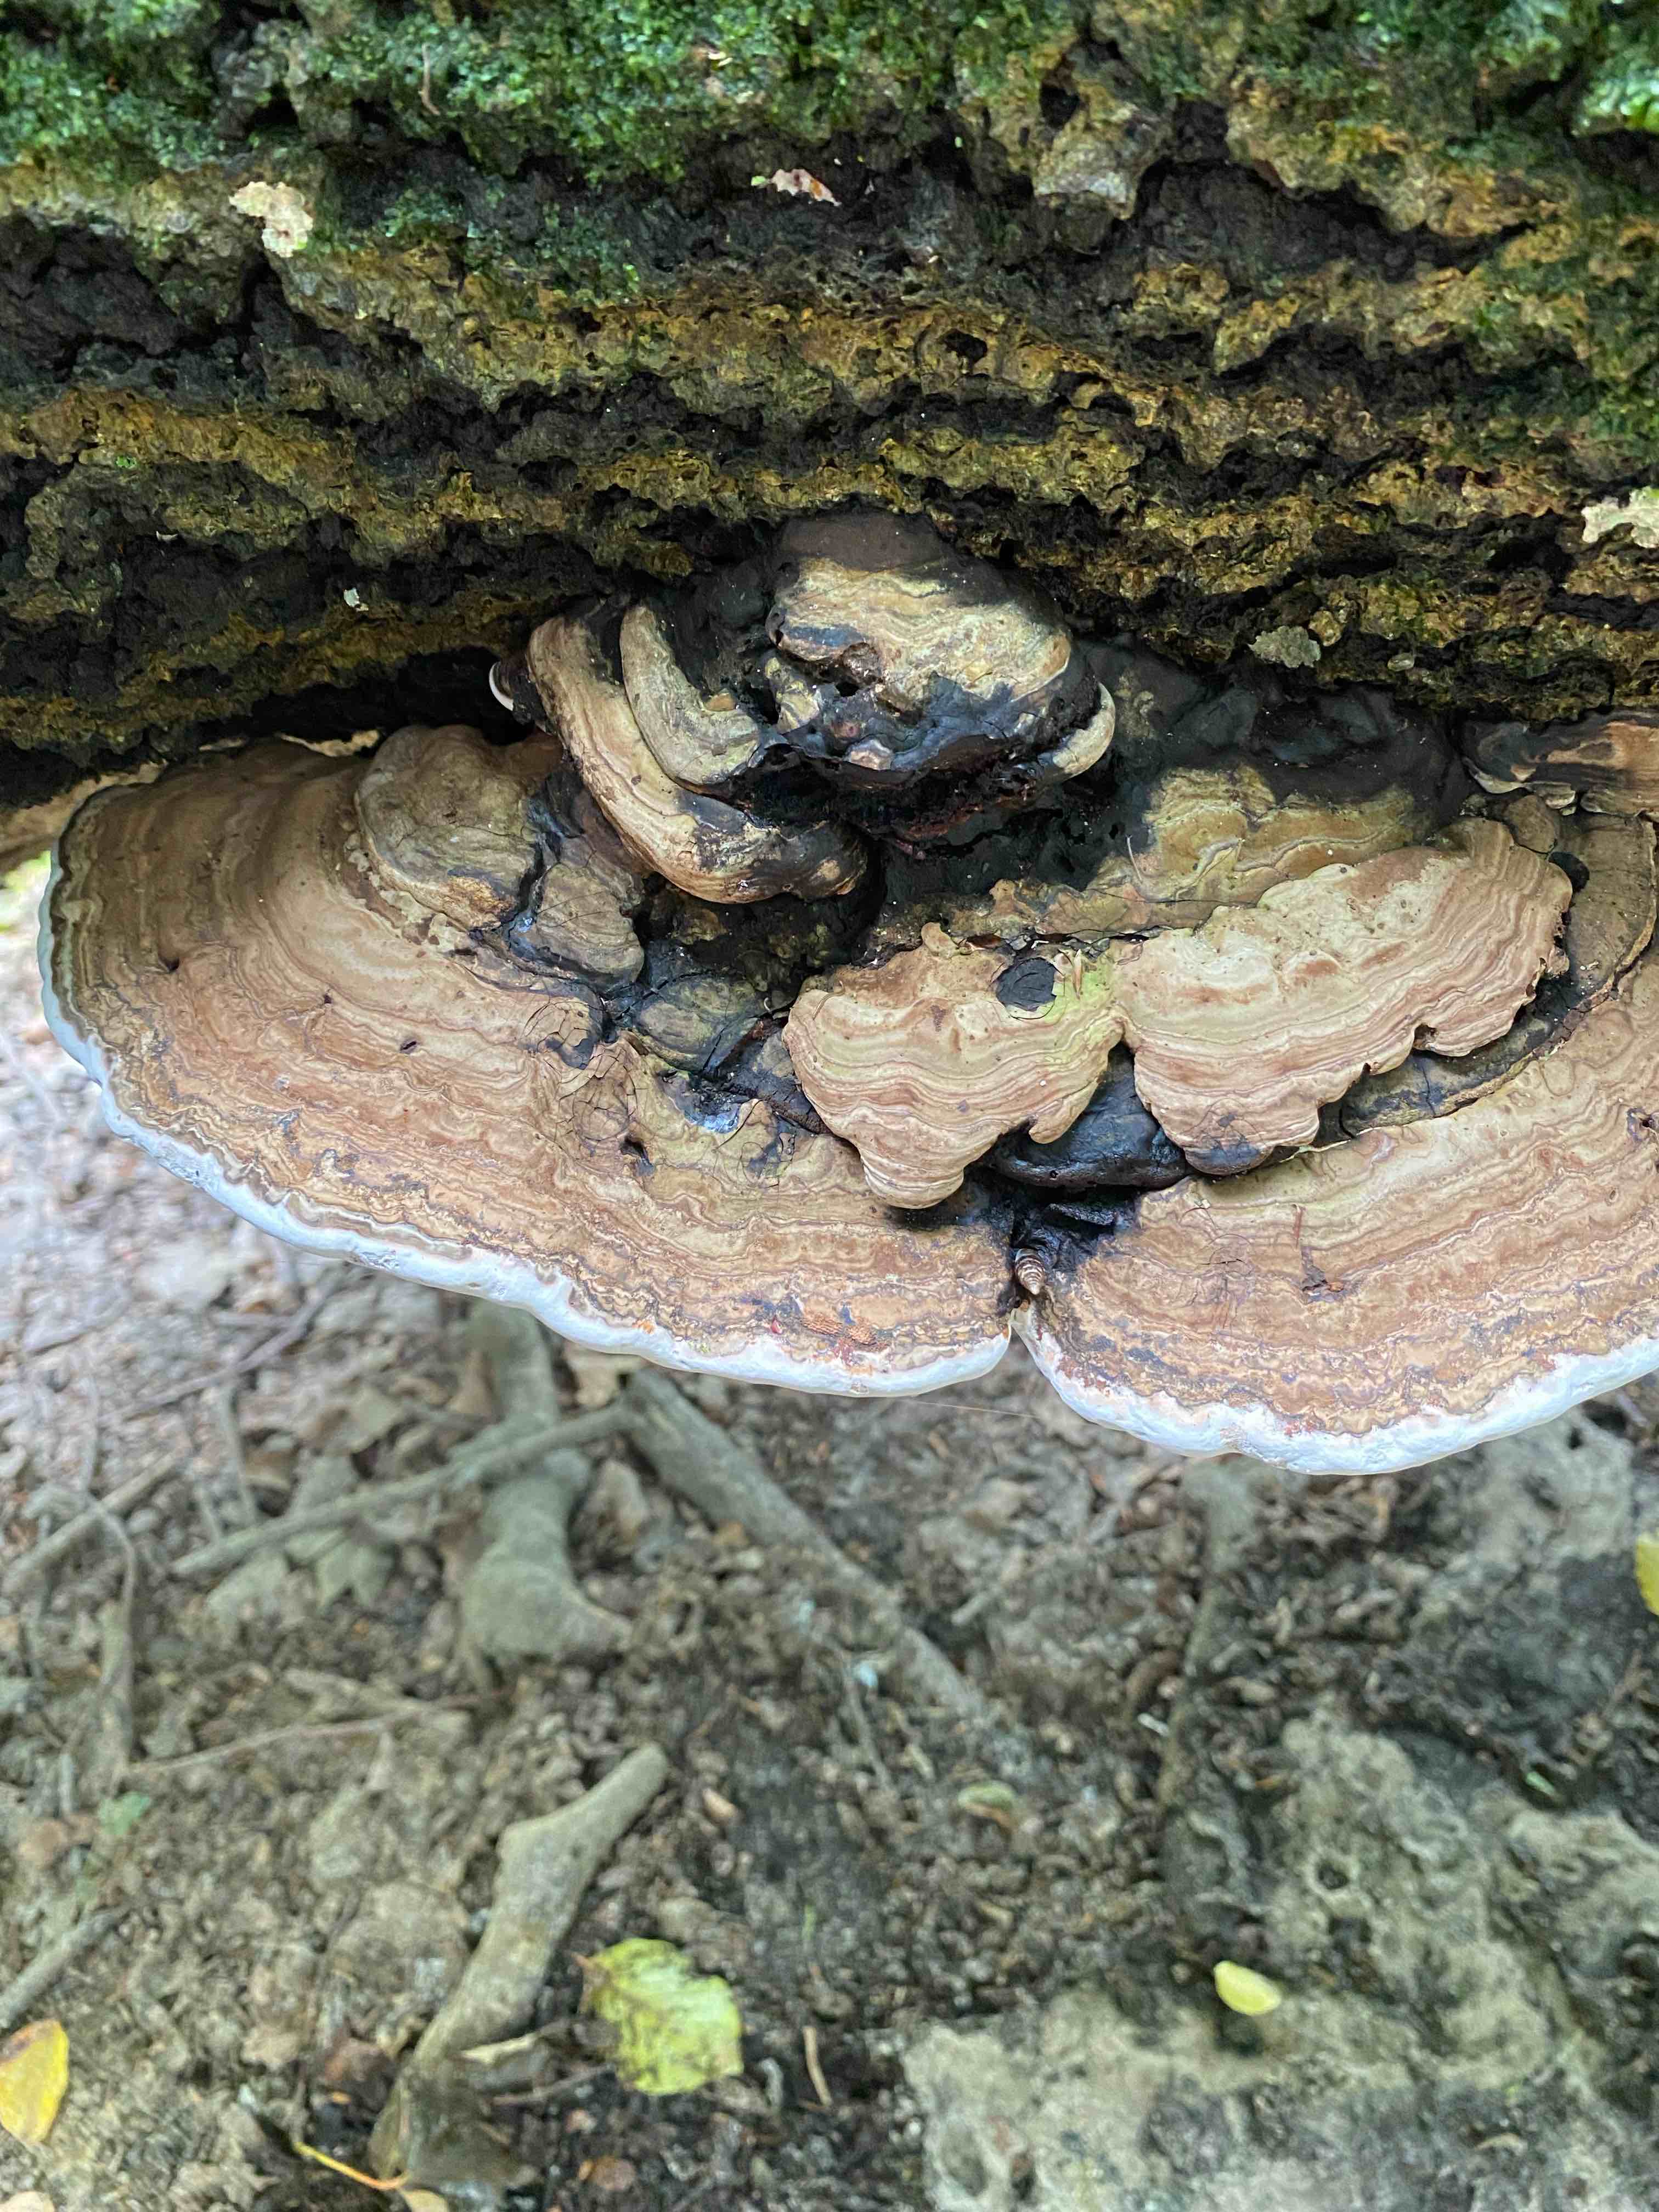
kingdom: Fungi
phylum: Basidiomycota
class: Agaricomycetes
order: Polyporales
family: Polyporaceae
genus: Ganoderma
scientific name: Ganoderma applanatum
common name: flad lakporesvamp
